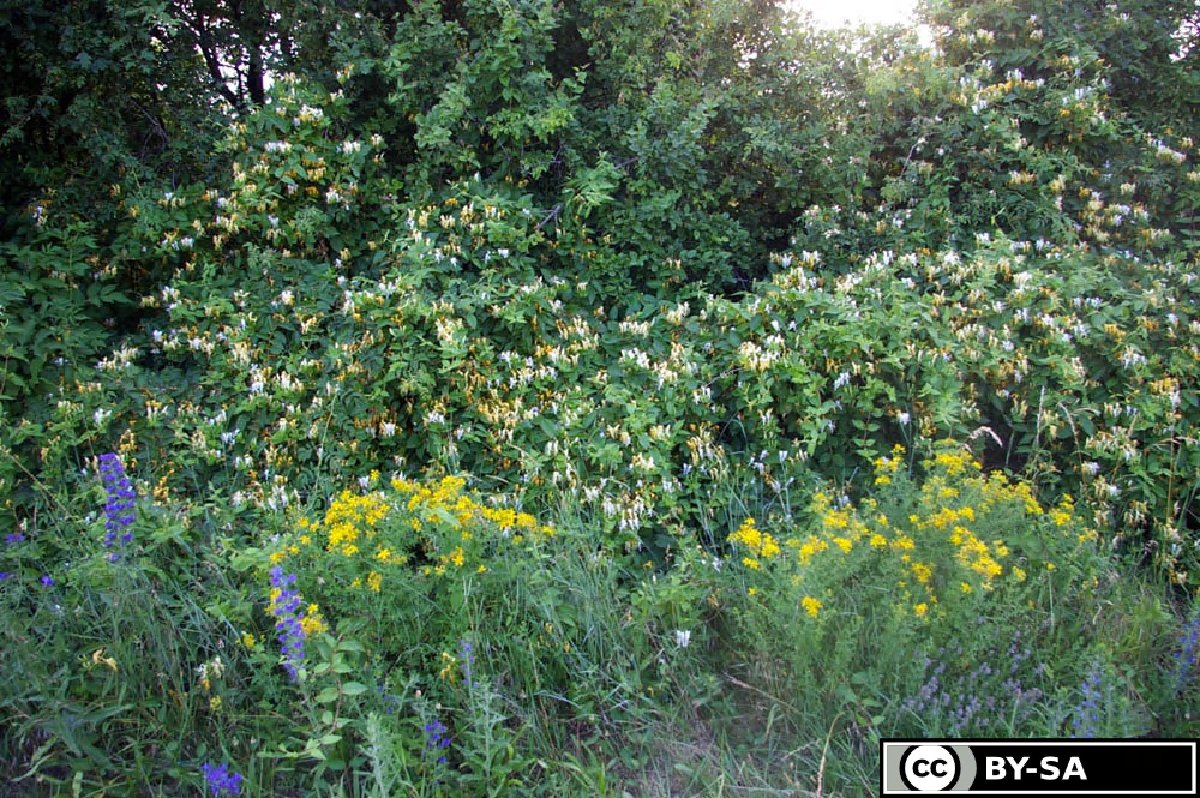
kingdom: Plantae
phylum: Tracheophyta
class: Magnoliopsida
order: Dipsacales
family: Caprifoliaceae
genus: Lonicera
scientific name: Lonicera japonica
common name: Japanese honeysuckle
